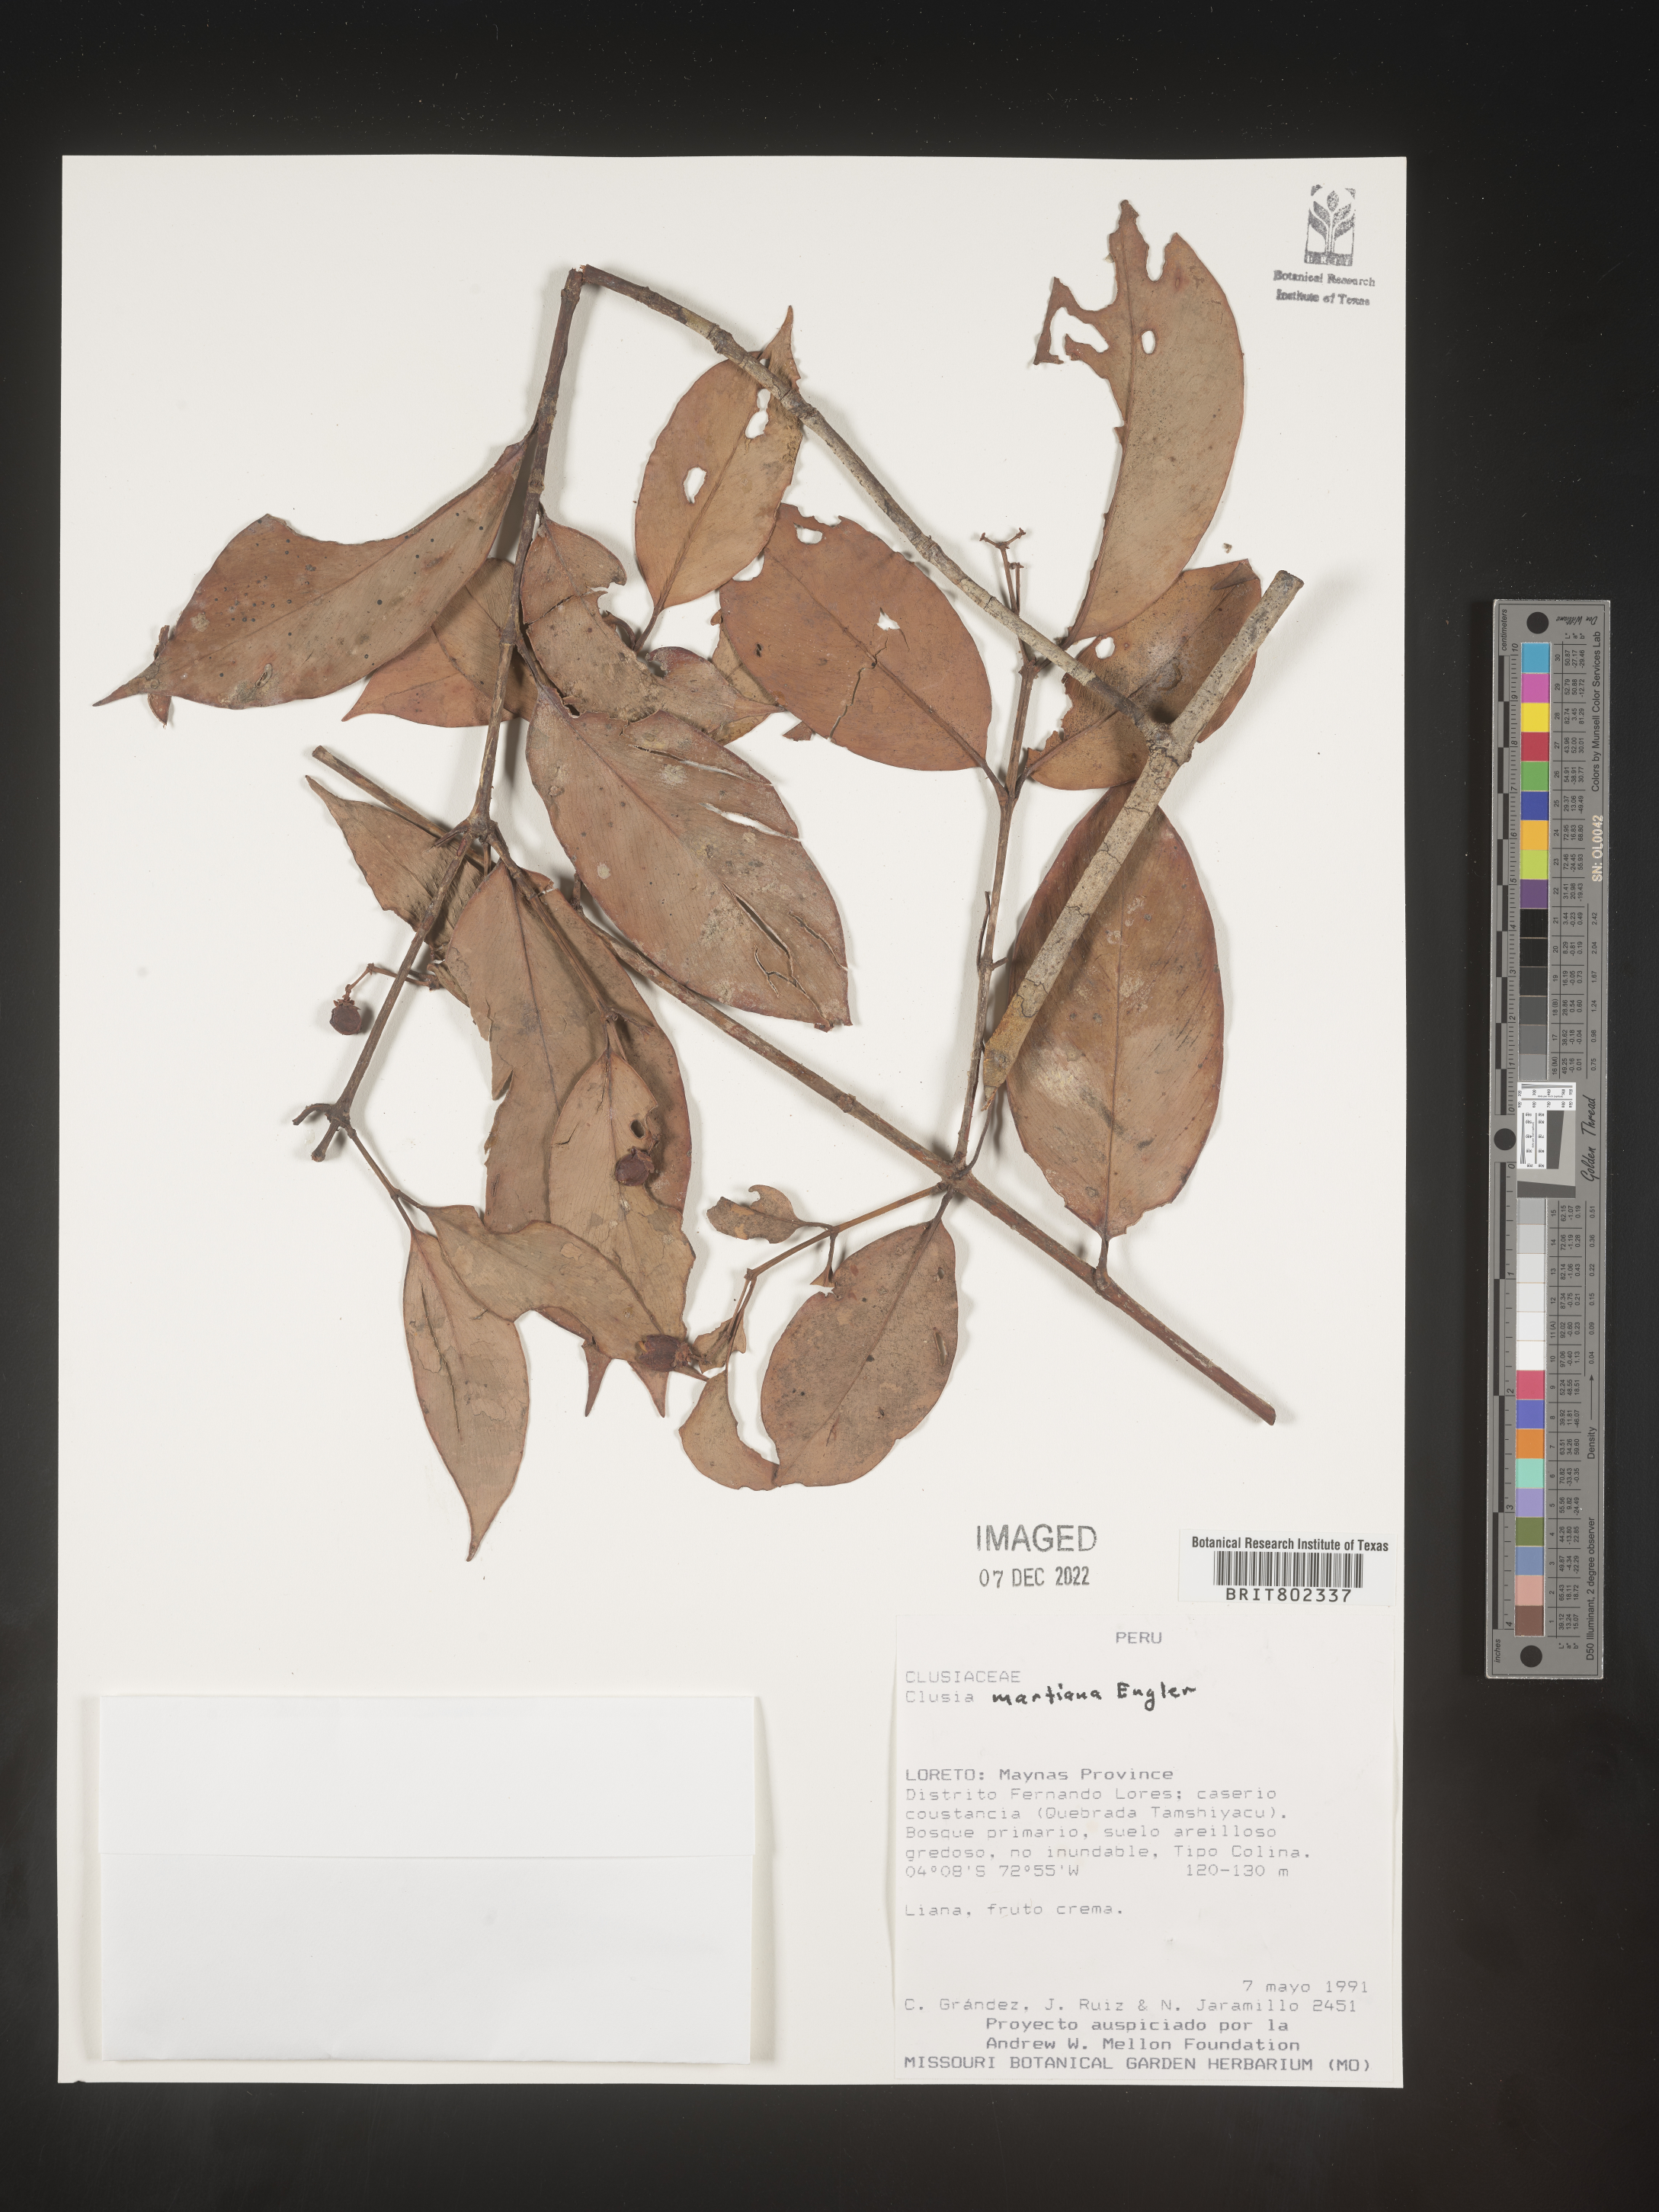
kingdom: Plantae
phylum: Tracheophyta
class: Magnoliopsida
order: Malpighiales
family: Clusiaceae
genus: Clusia
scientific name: Clusia hammeliana
